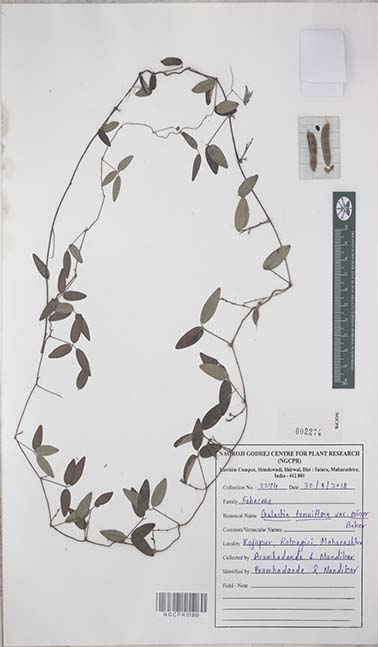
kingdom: Plantae
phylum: Tracheophyta
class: Magnoliopsida
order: Fabales
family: Fabaceae
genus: Galactia
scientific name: Galactia striata
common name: Florida hammock milkpea
